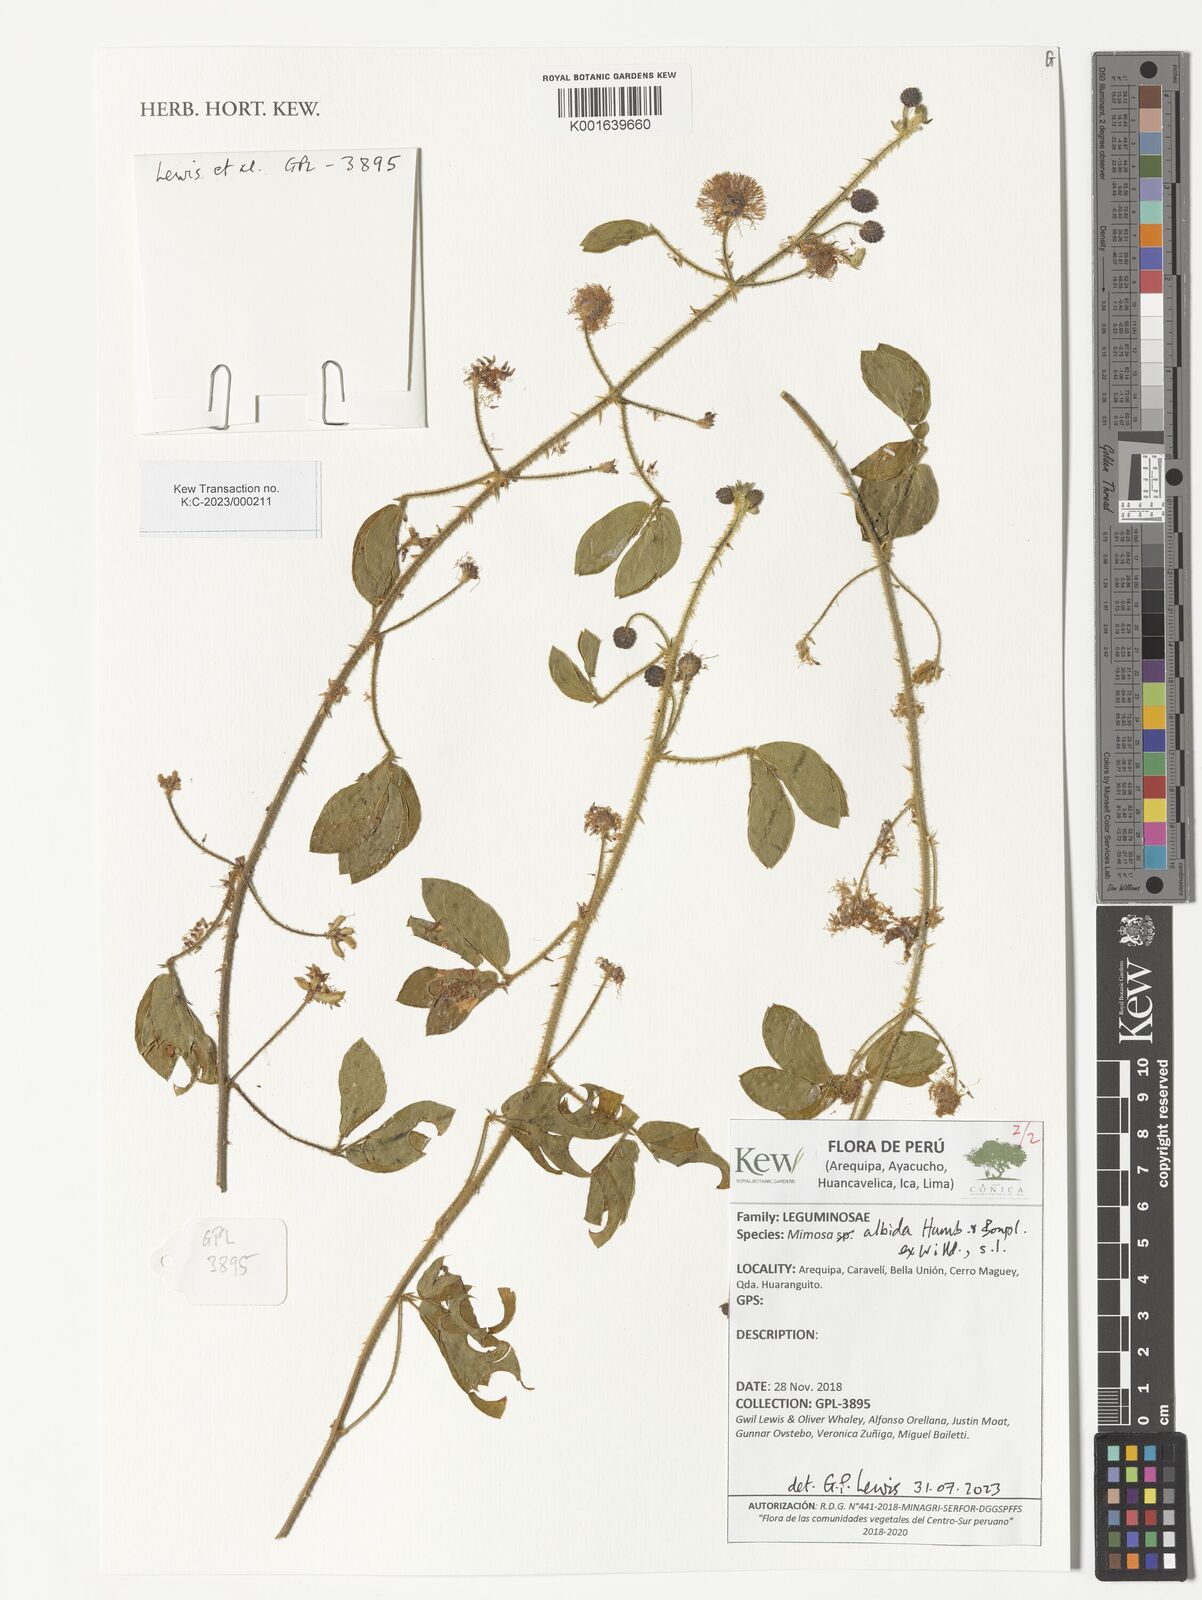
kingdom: Plantae
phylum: Tracheophyta
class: Magnoliopsida
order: Fabales
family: Fabaceae
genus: Mimosa
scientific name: Mimosa albida
